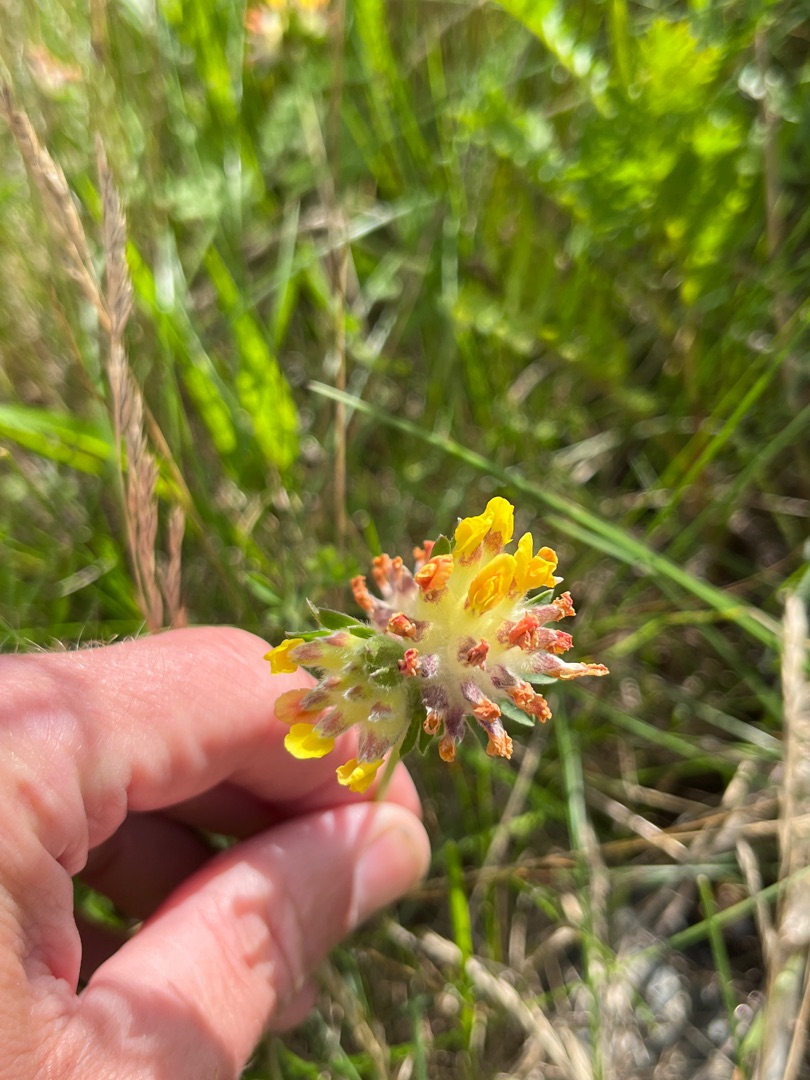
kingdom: Plantae
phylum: Tracheophyta
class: Magnoliopsida
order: Fabales
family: Fabaceae
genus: Anthyllis
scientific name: Anthyllis vulneraria
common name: Rundbælg
